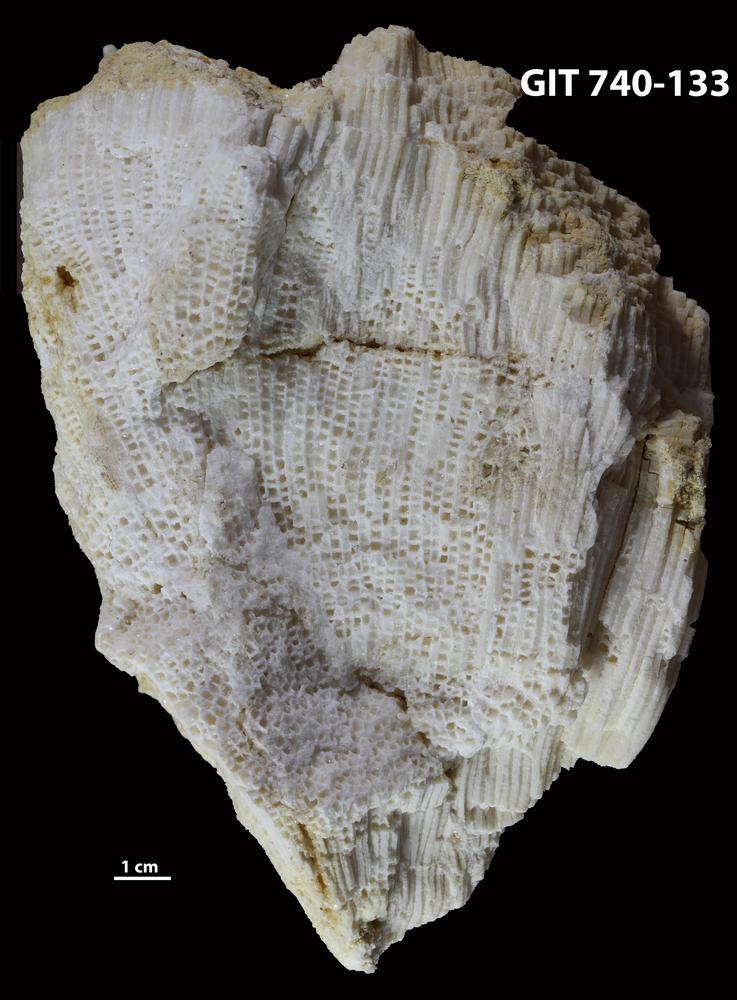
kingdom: Animalia
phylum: Cnidaria
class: Anthozoa
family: Favositidae
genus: Mesofavosites
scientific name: Mesofavosites dualis
